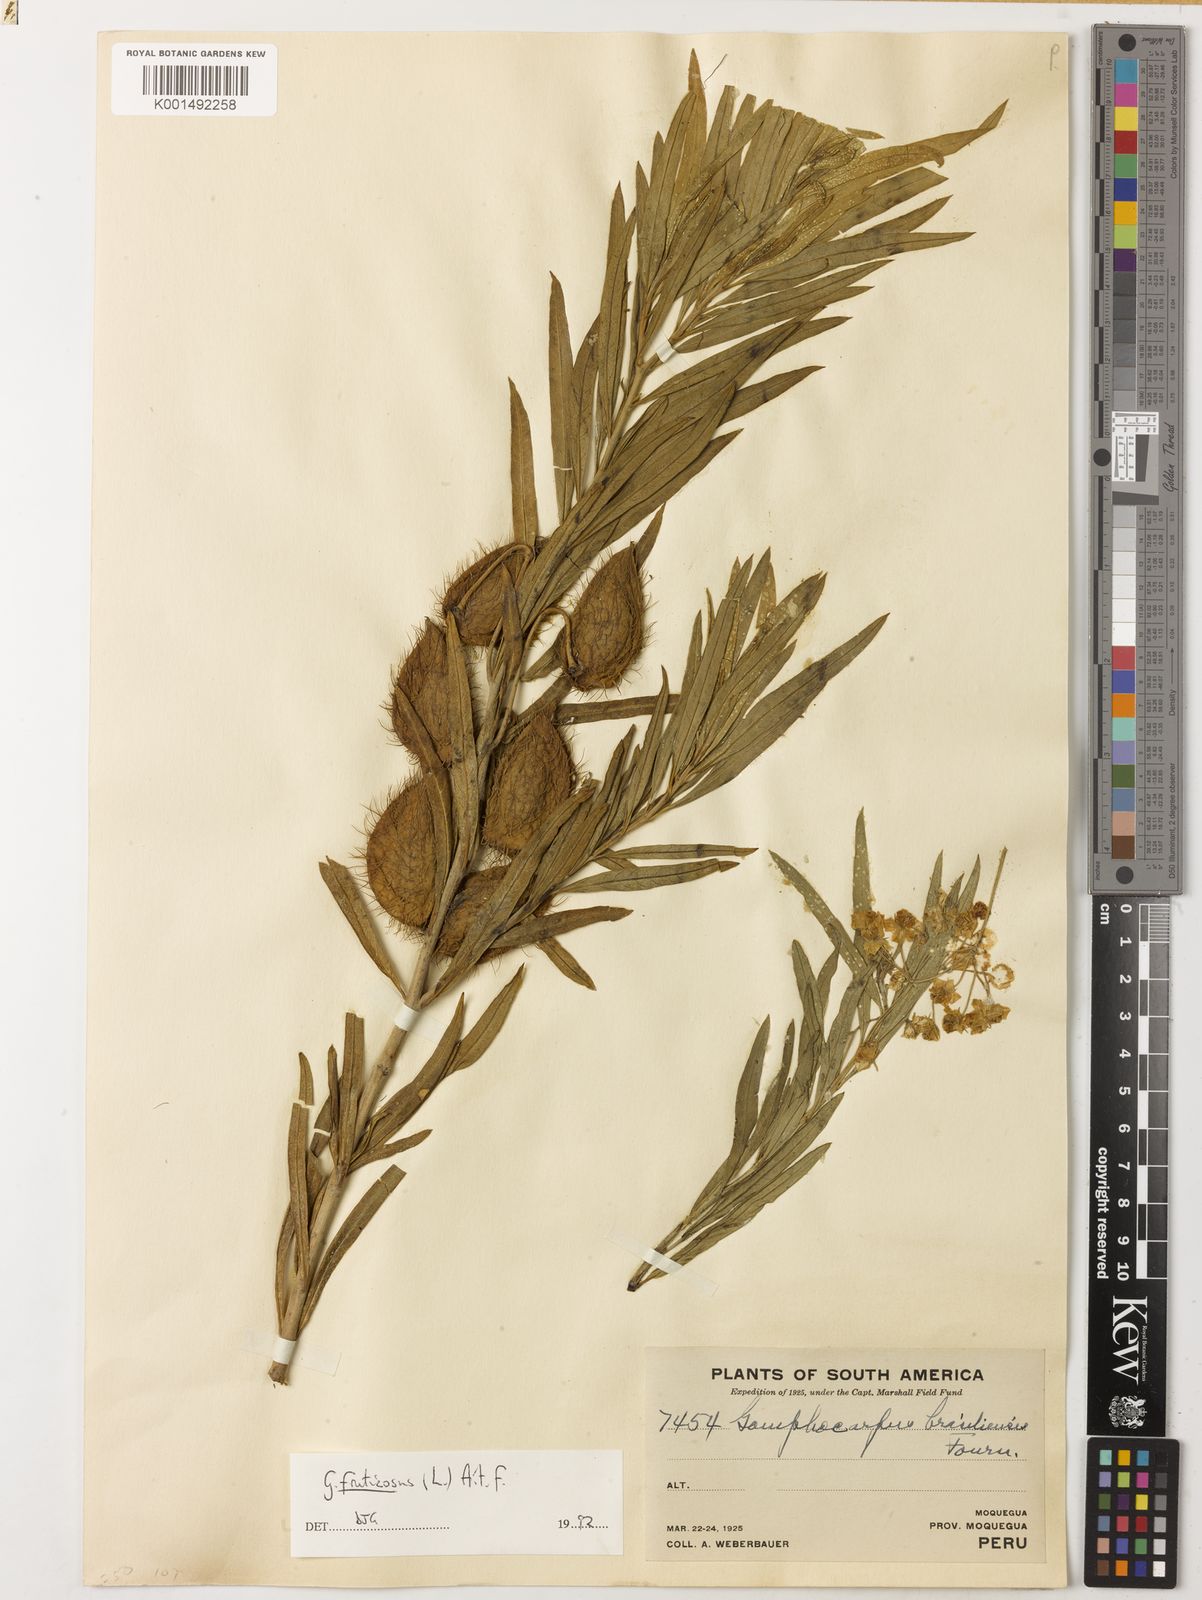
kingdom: Plantae
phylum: Tracheophyta
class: Magnoliopsida
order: Gentianales
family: Apocynaceae
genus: Gomphocarpus
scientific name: Gomphocarpus fruticosus
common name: Milkweed
